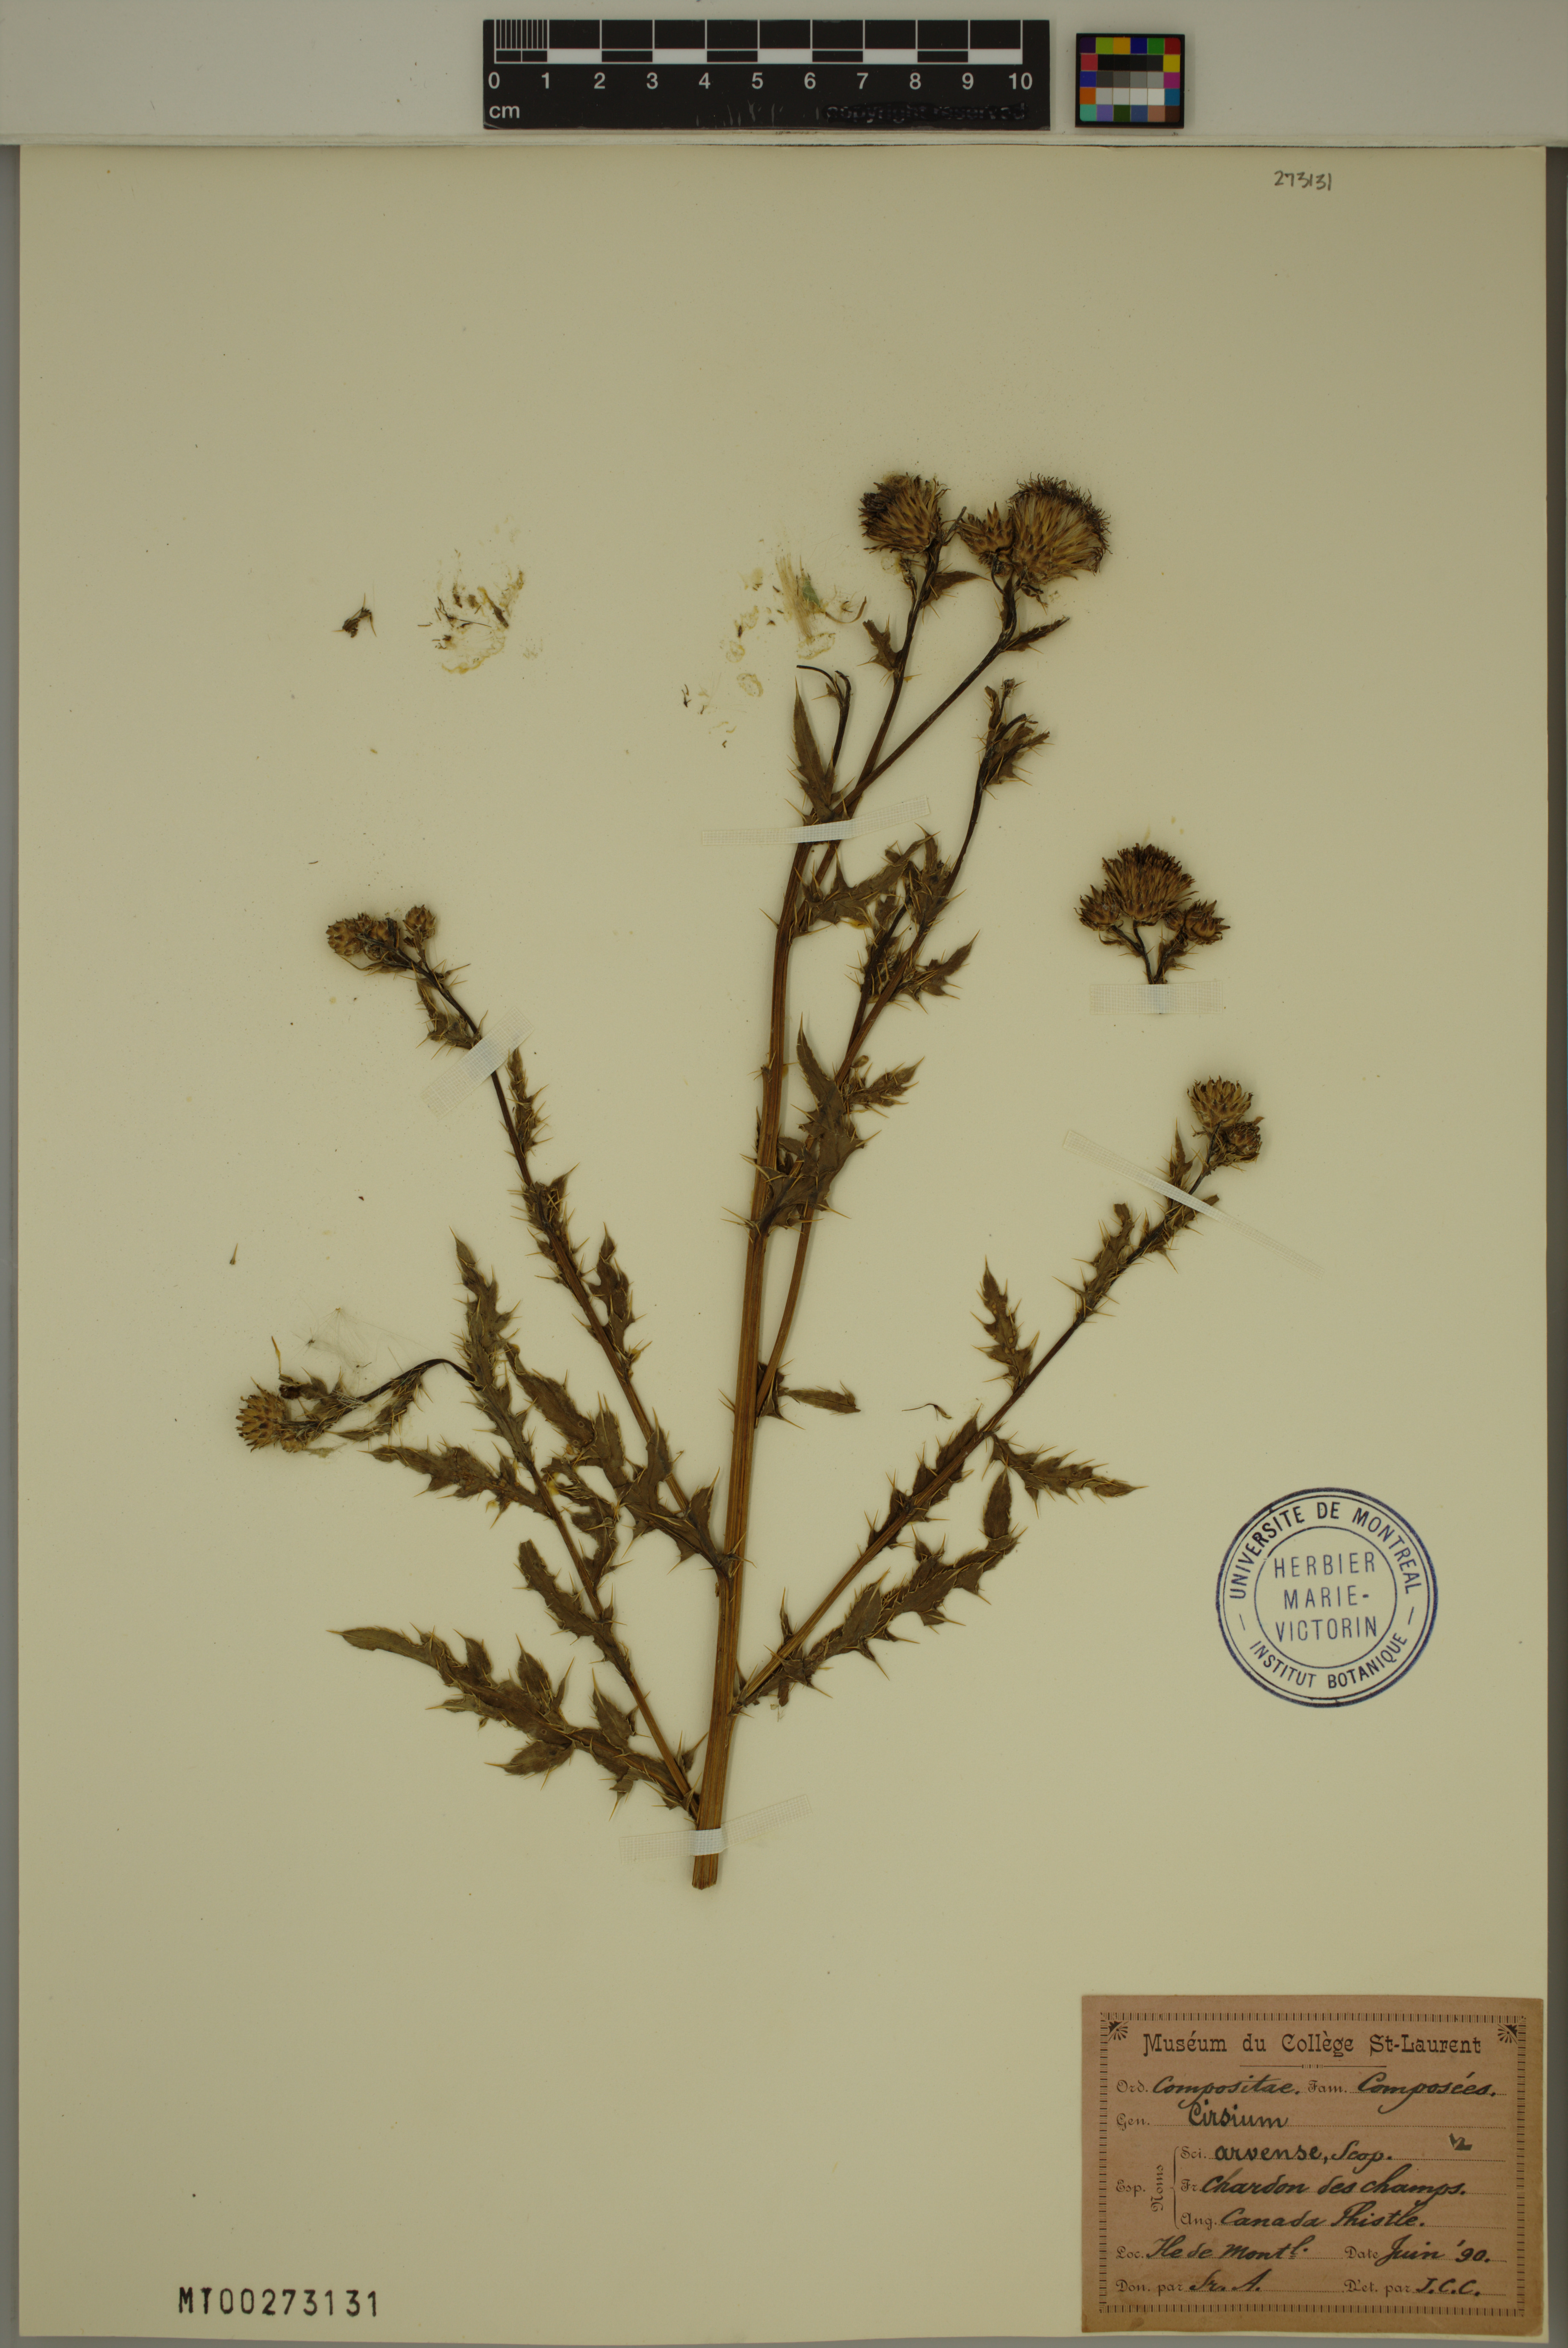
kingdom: Plantae
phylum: Tracheophyta
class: Magnoliopsida
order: Asterales
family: Asteraceae
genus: Cirsium
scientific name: Cirsium arvense
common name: Creeping thistle
